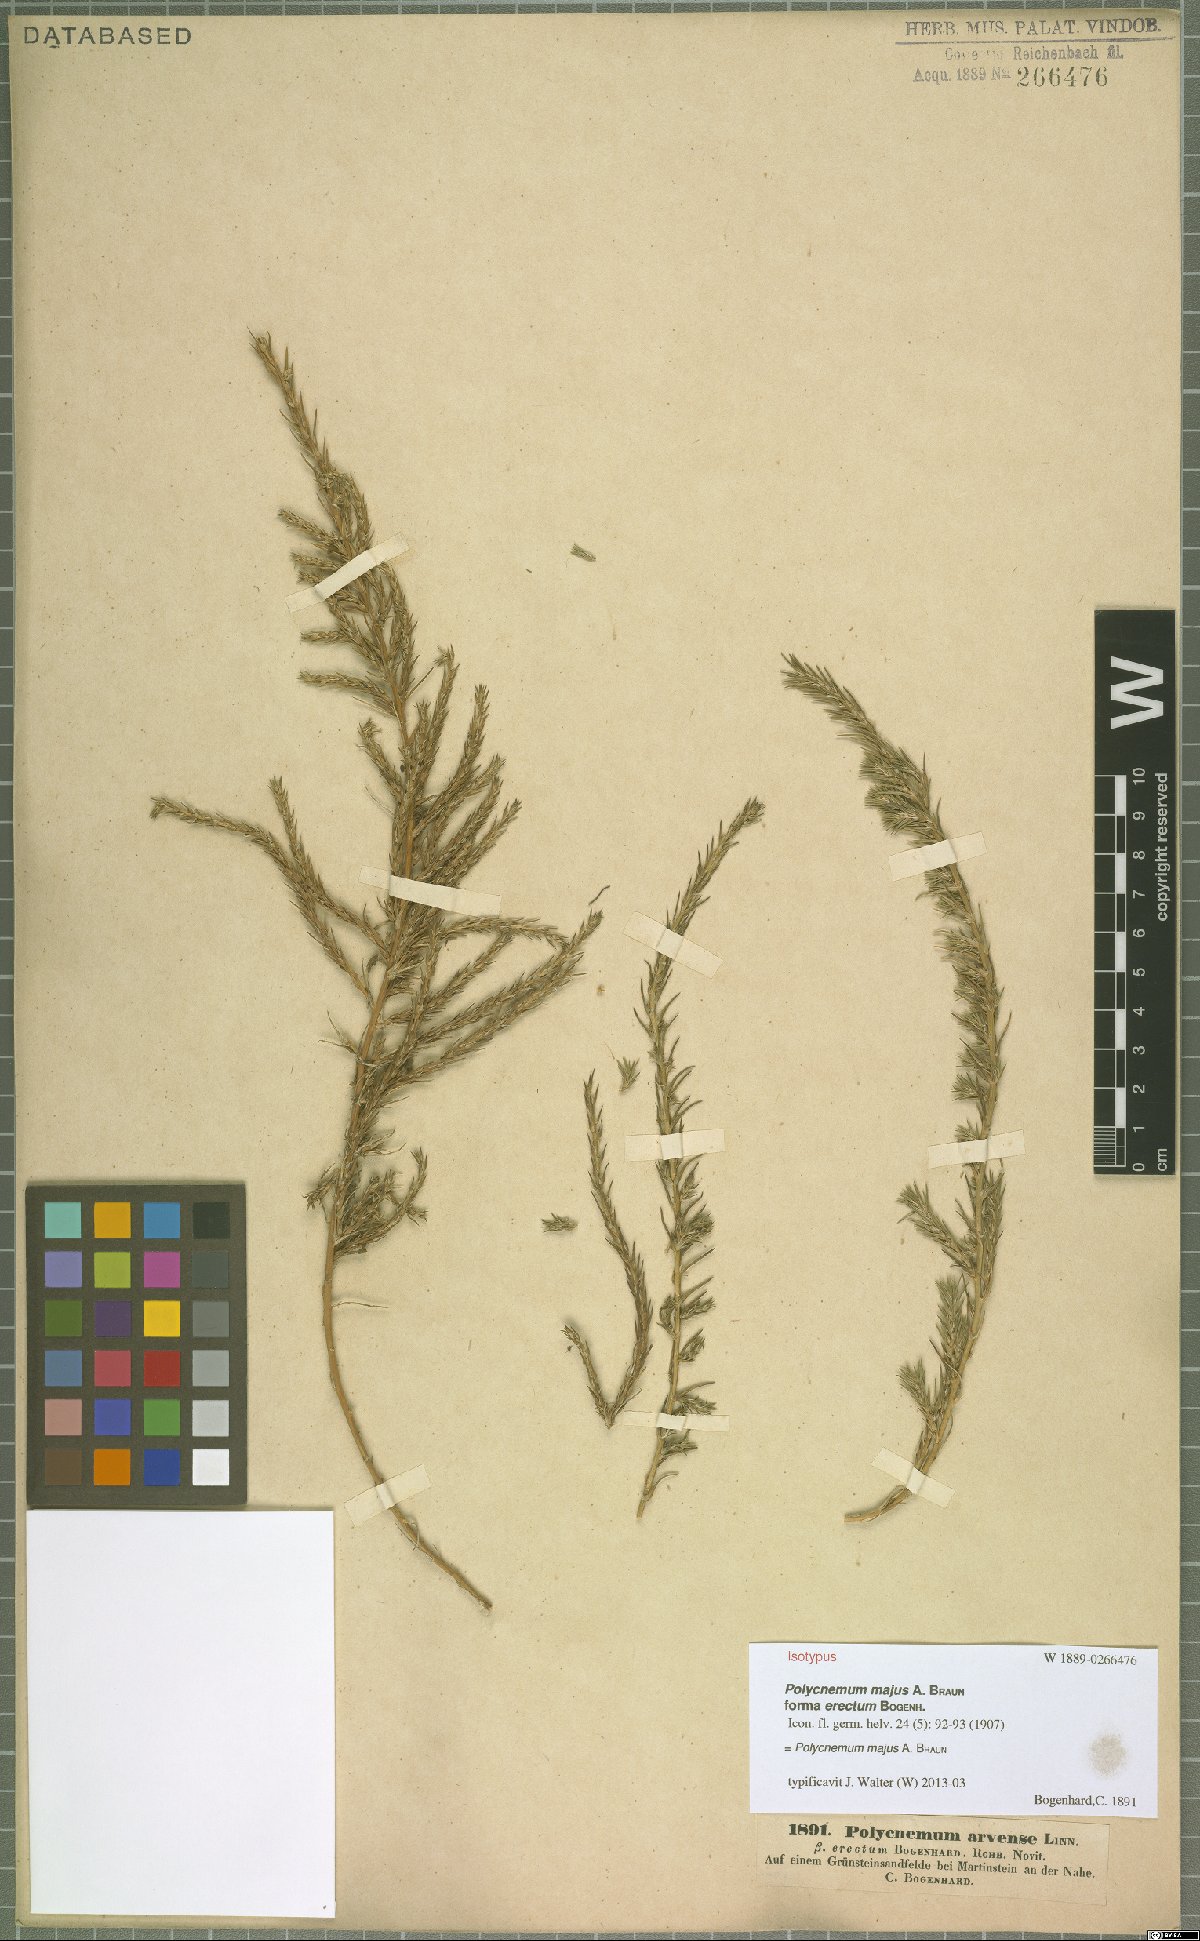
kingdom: Plantae
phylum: Tracheophyta
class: Magnoliopsida
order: Caryophyllales
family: Amaranthaceae
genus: Polycnemum
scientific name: Polycnemum majus
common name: Giant needleleaf
